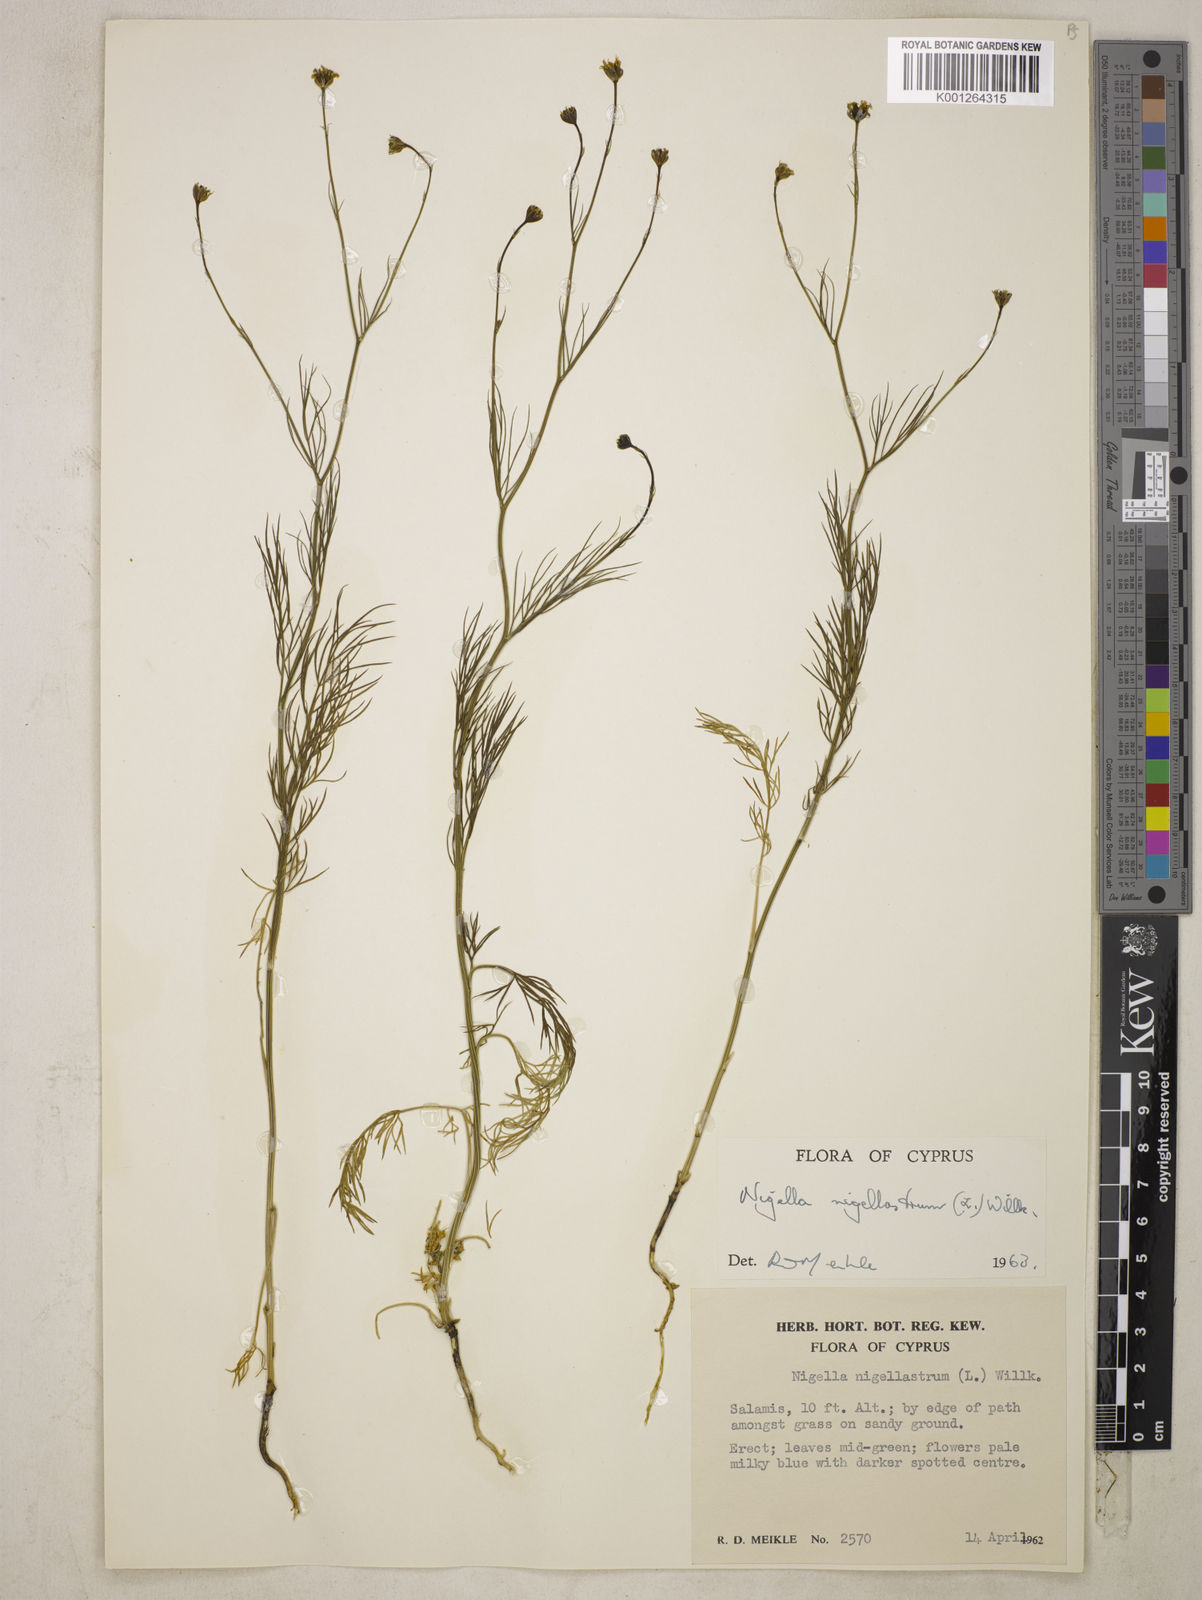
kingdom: Plantae
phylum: Tracheophyta
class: Magnoliopsida
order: Ranunculales
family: Ranunculaceae
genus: Garidella
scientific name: Garidella nigellastrum
